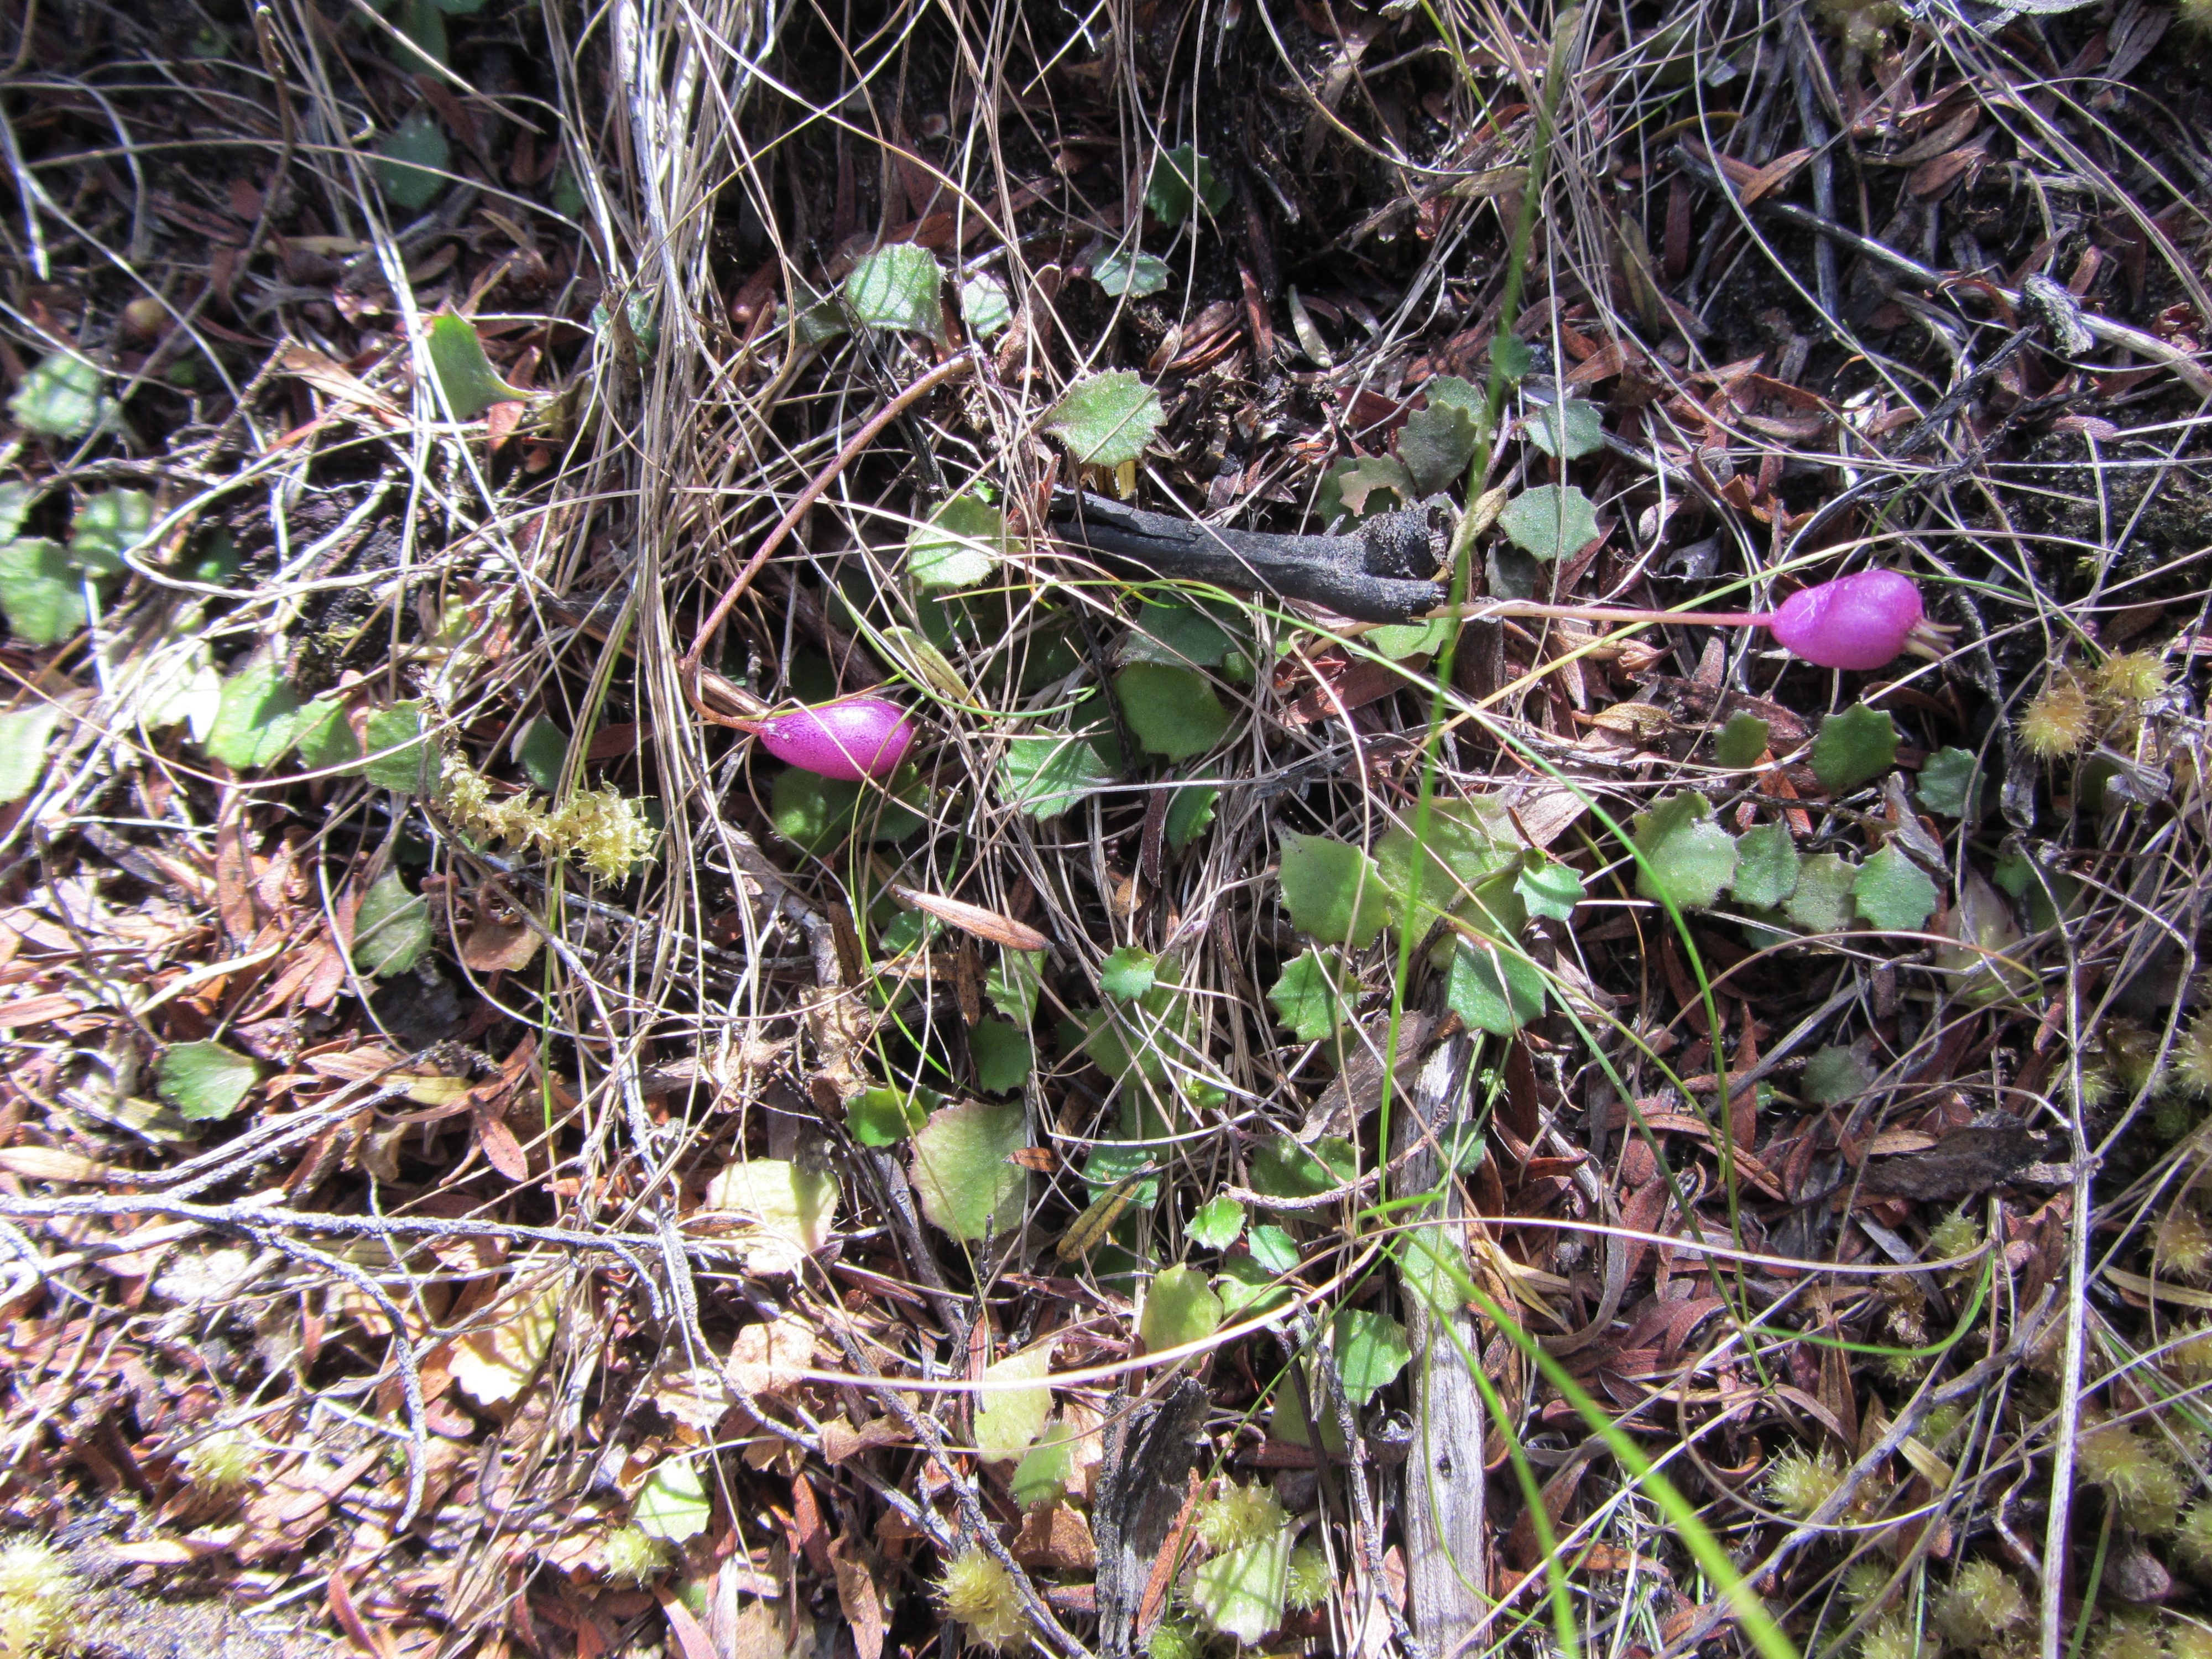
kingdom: Plantae
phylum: Tracheophyta
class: Magnoliopsida
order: Asterales
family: Campanulaceae
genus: Lobelia
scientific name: Lobelia
